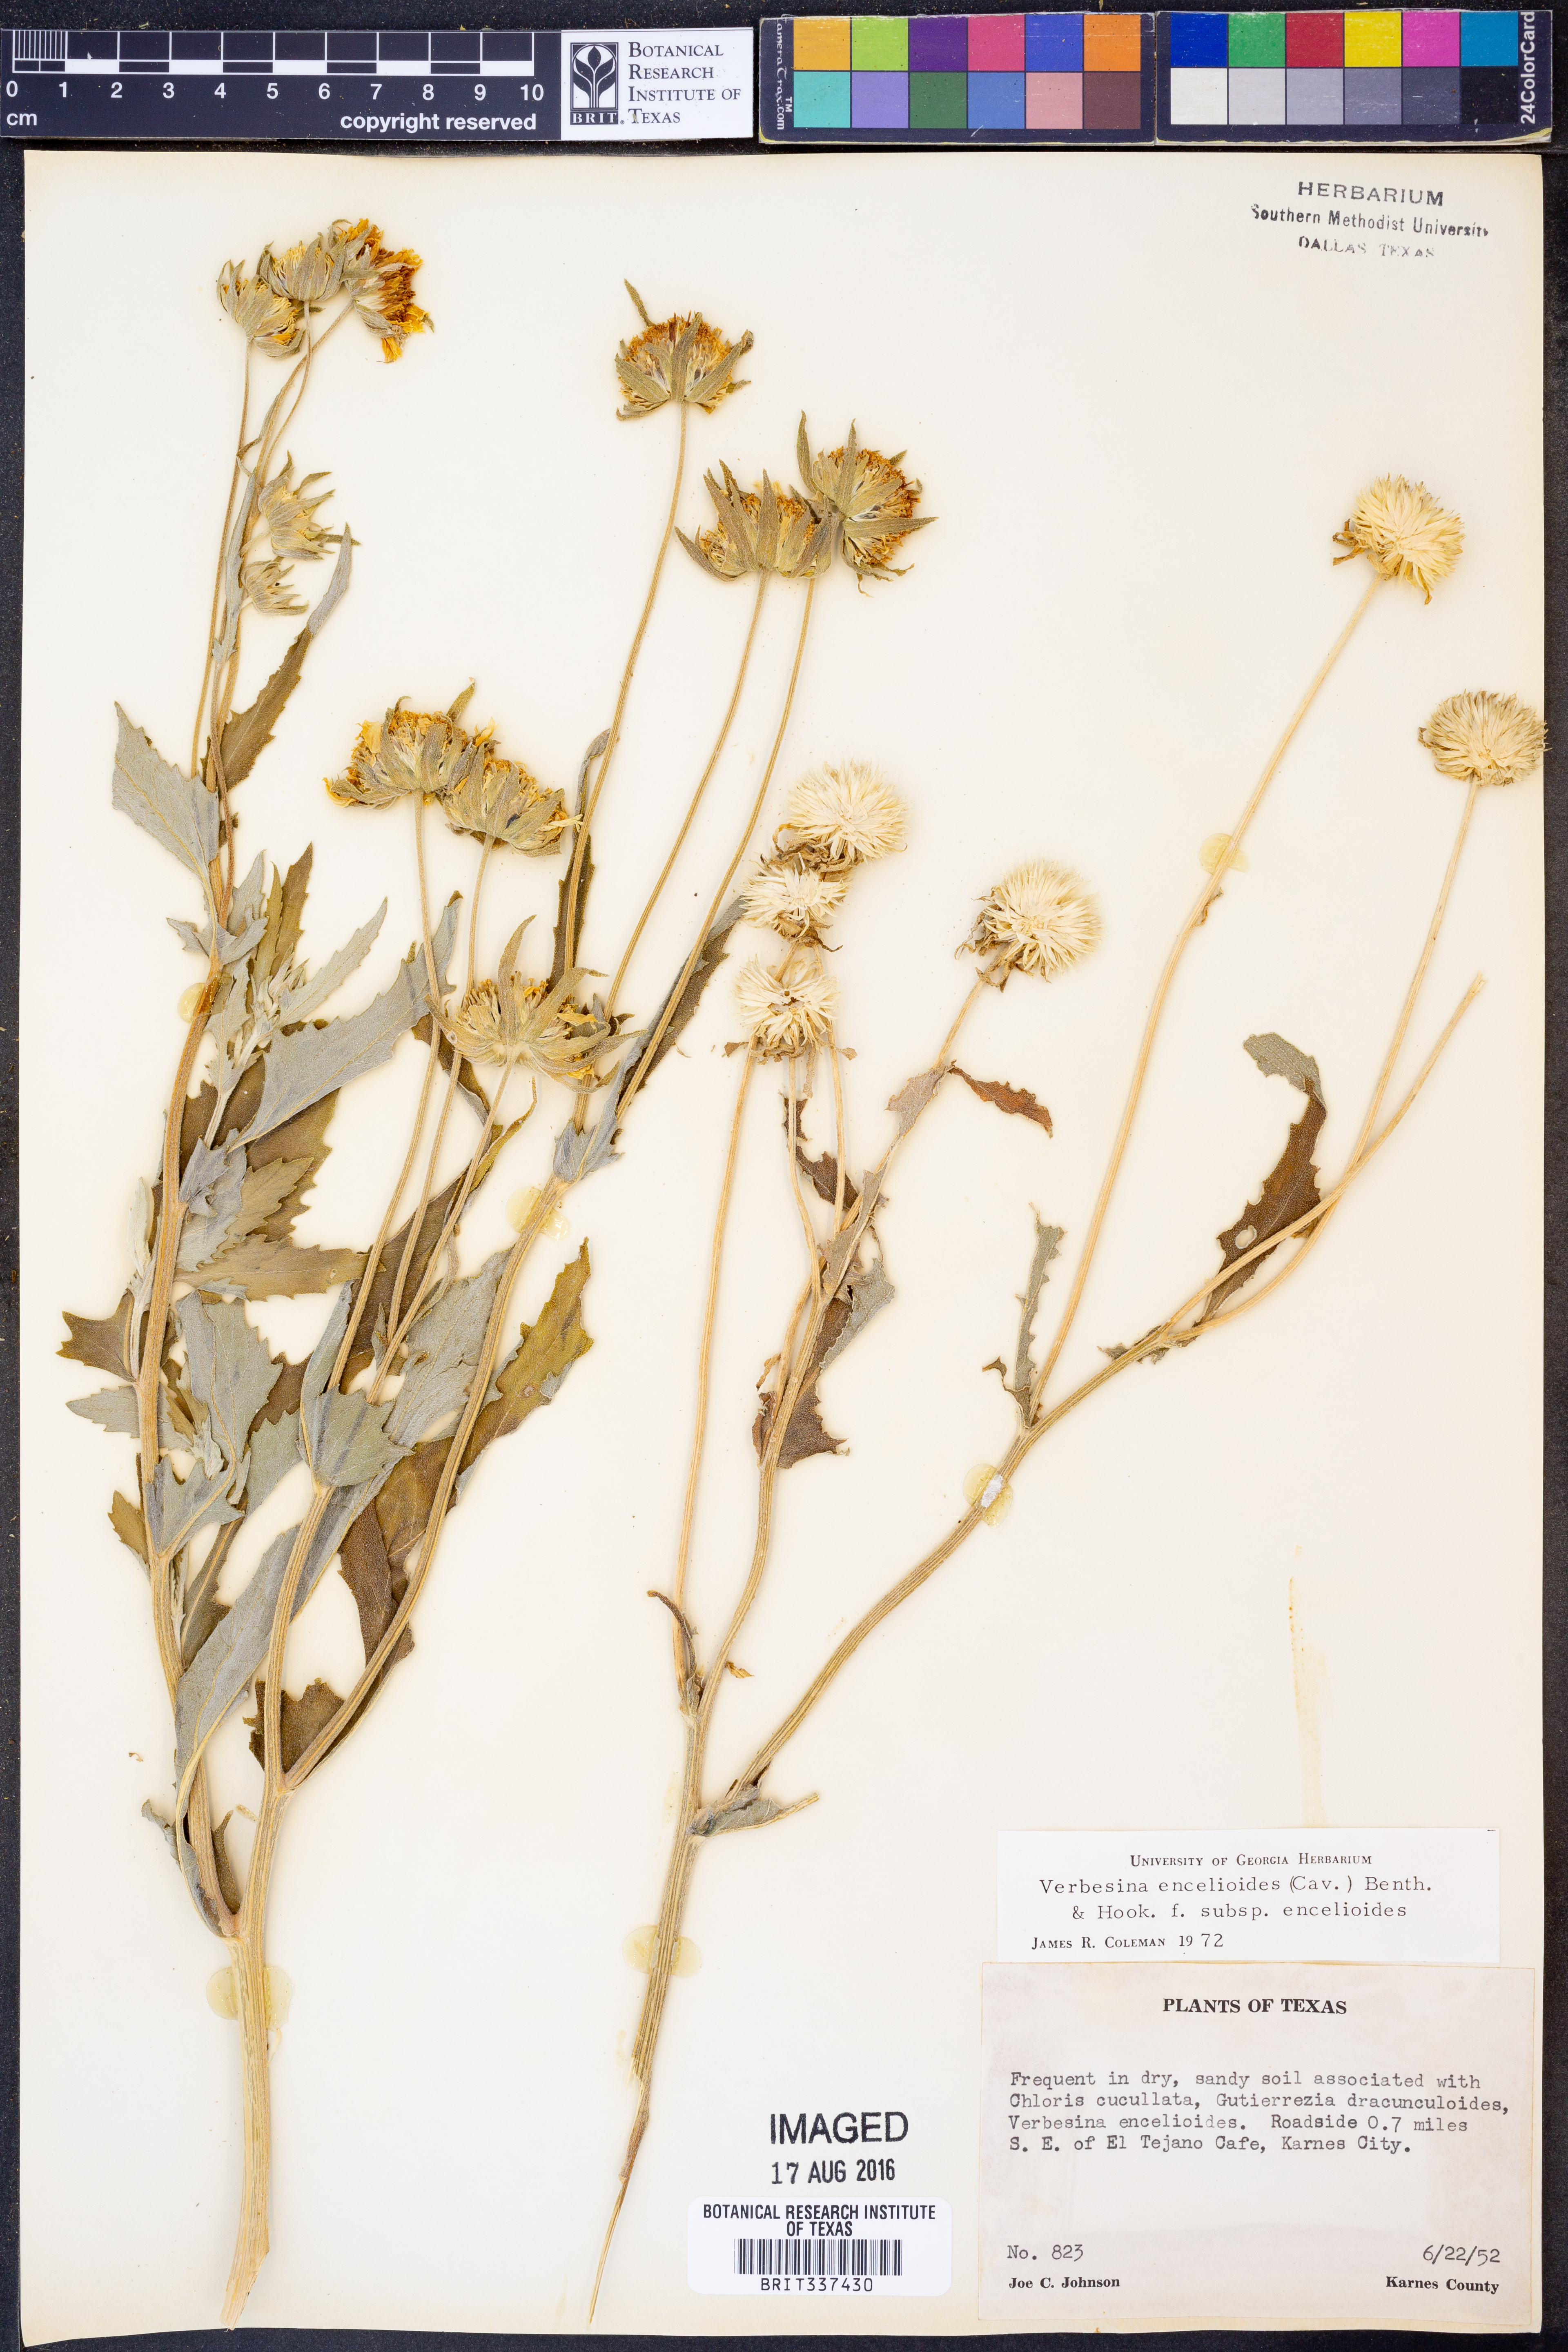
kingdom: Plantae
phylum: Tracheophyta
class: Magnoliopsida
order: Asterales
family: Asteraceae
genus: Verbesina
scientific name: Verbesina encelioides
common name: Golden crownbeard
